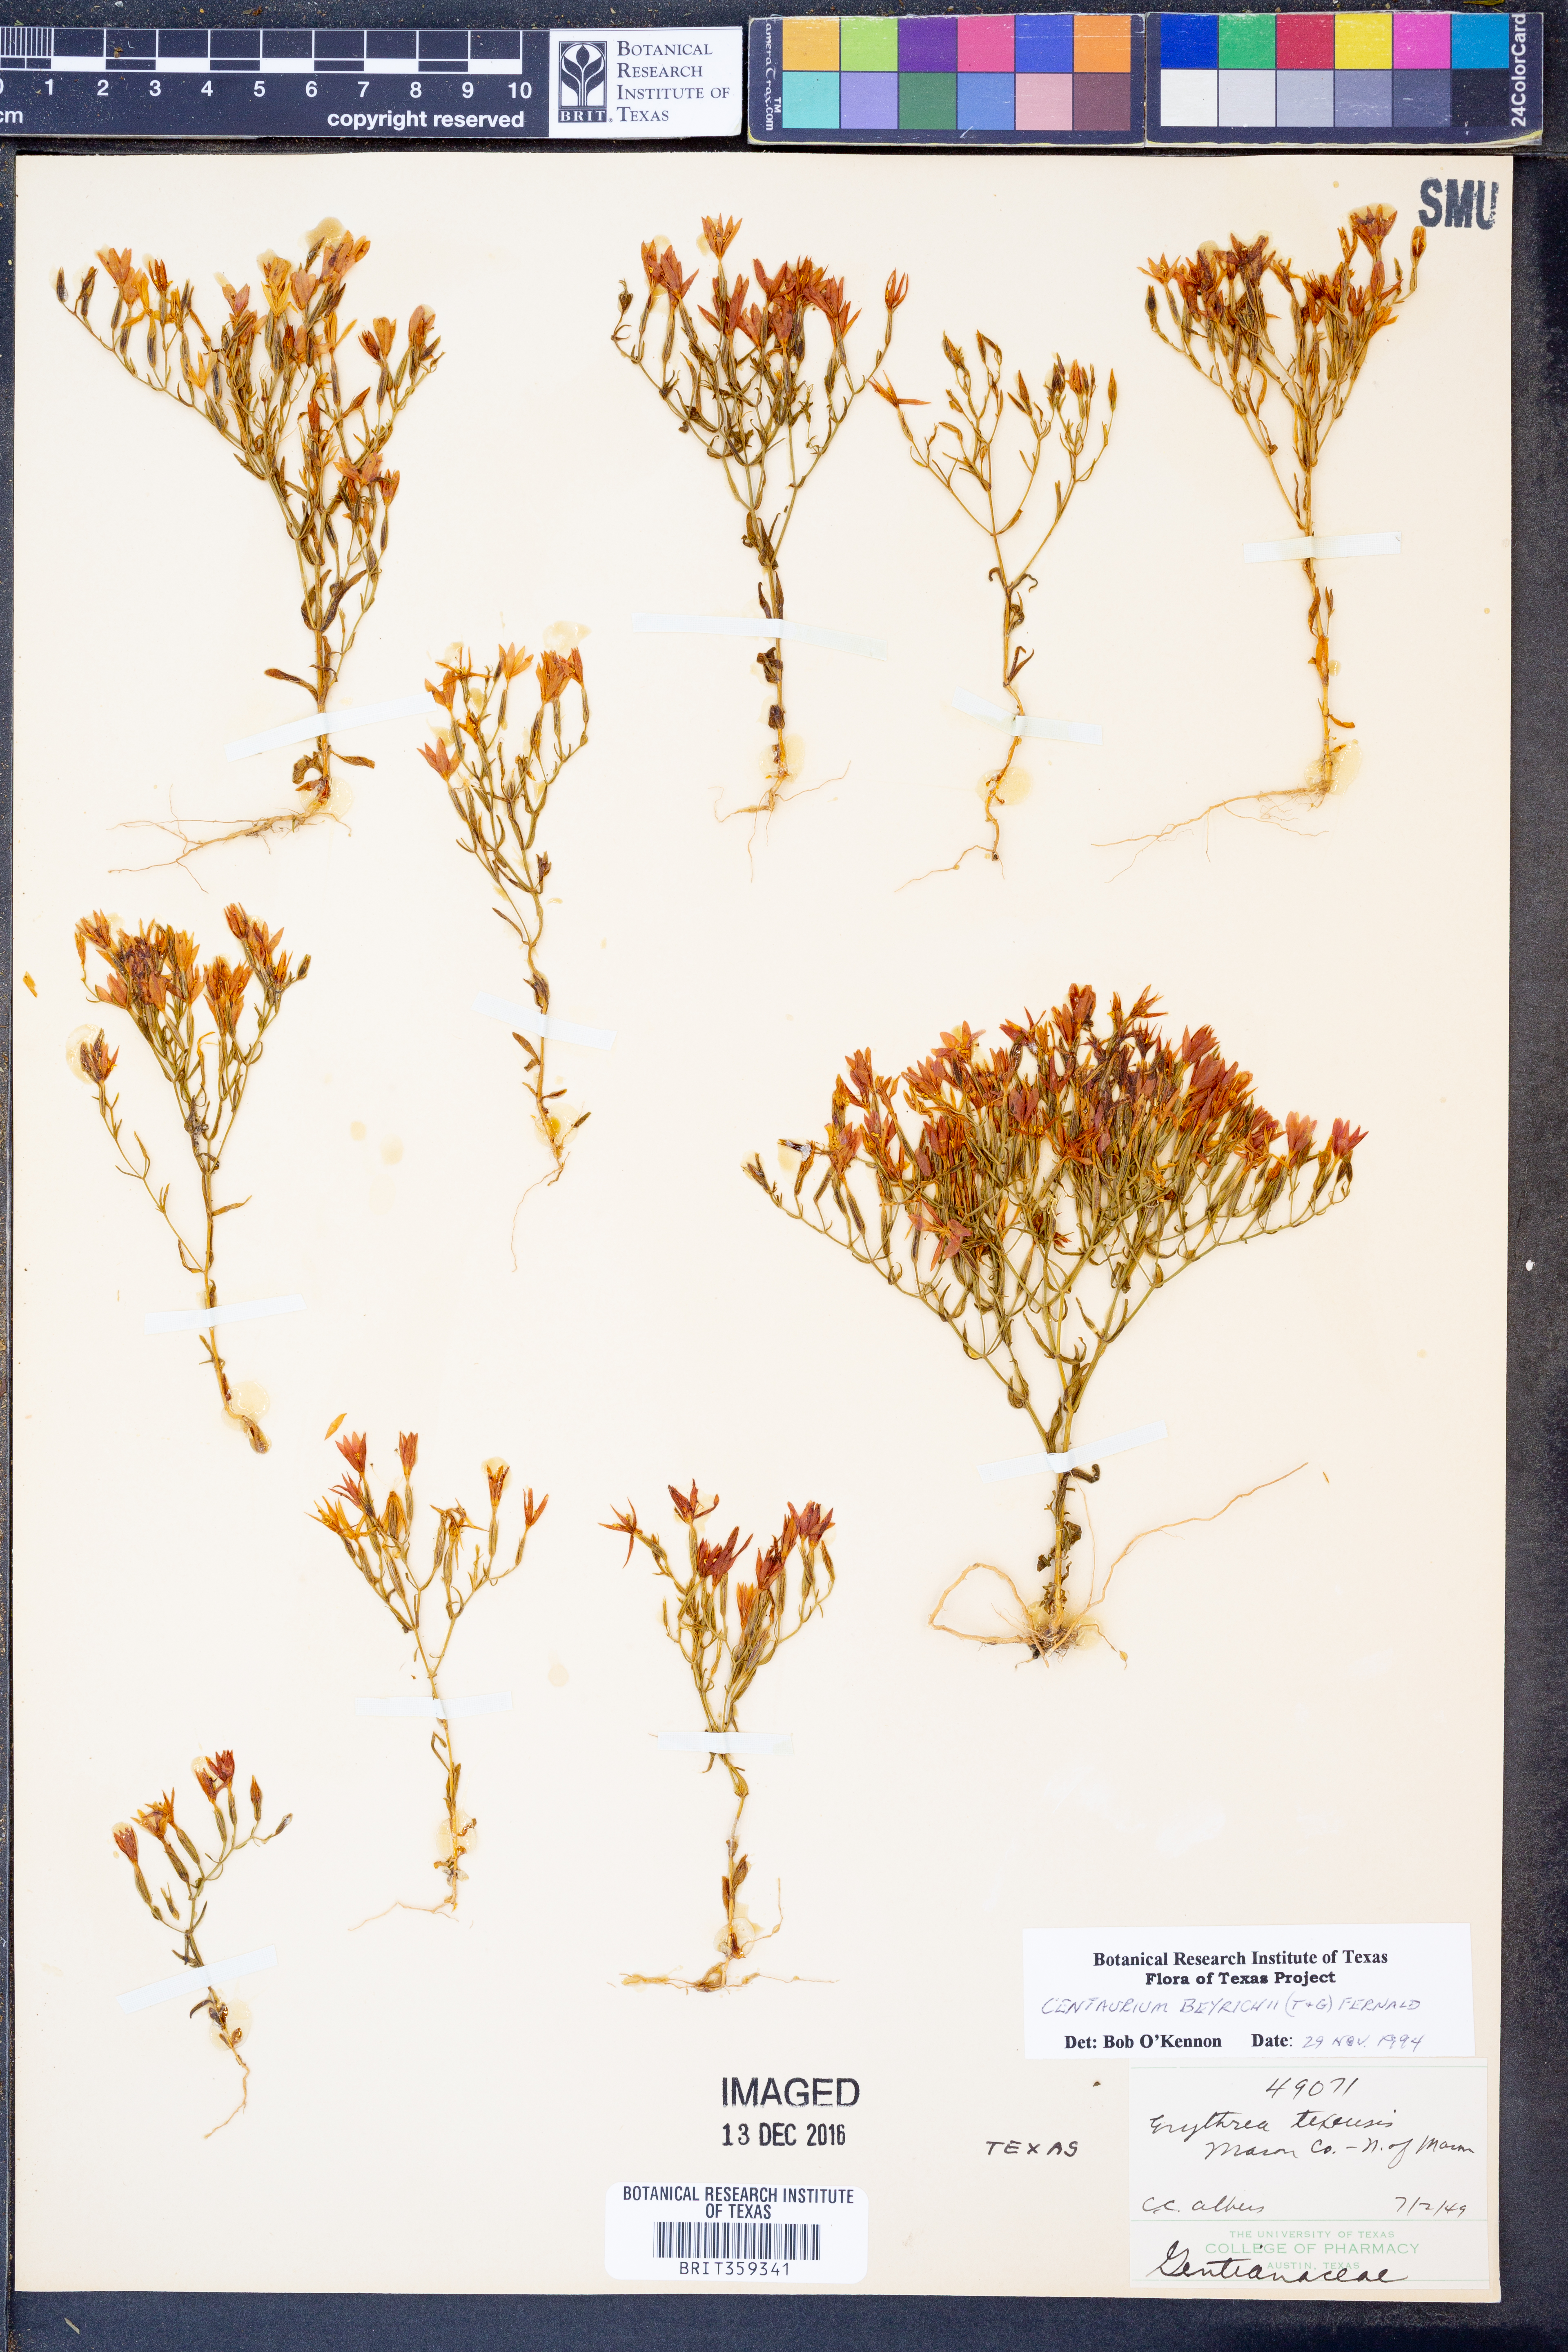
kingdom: Plantae
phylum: Tracheophyta
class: Magnoliopsida
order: Gentianales
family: Gentianaceae
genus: Zeltnera
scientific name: Zeltnera beyrichii
